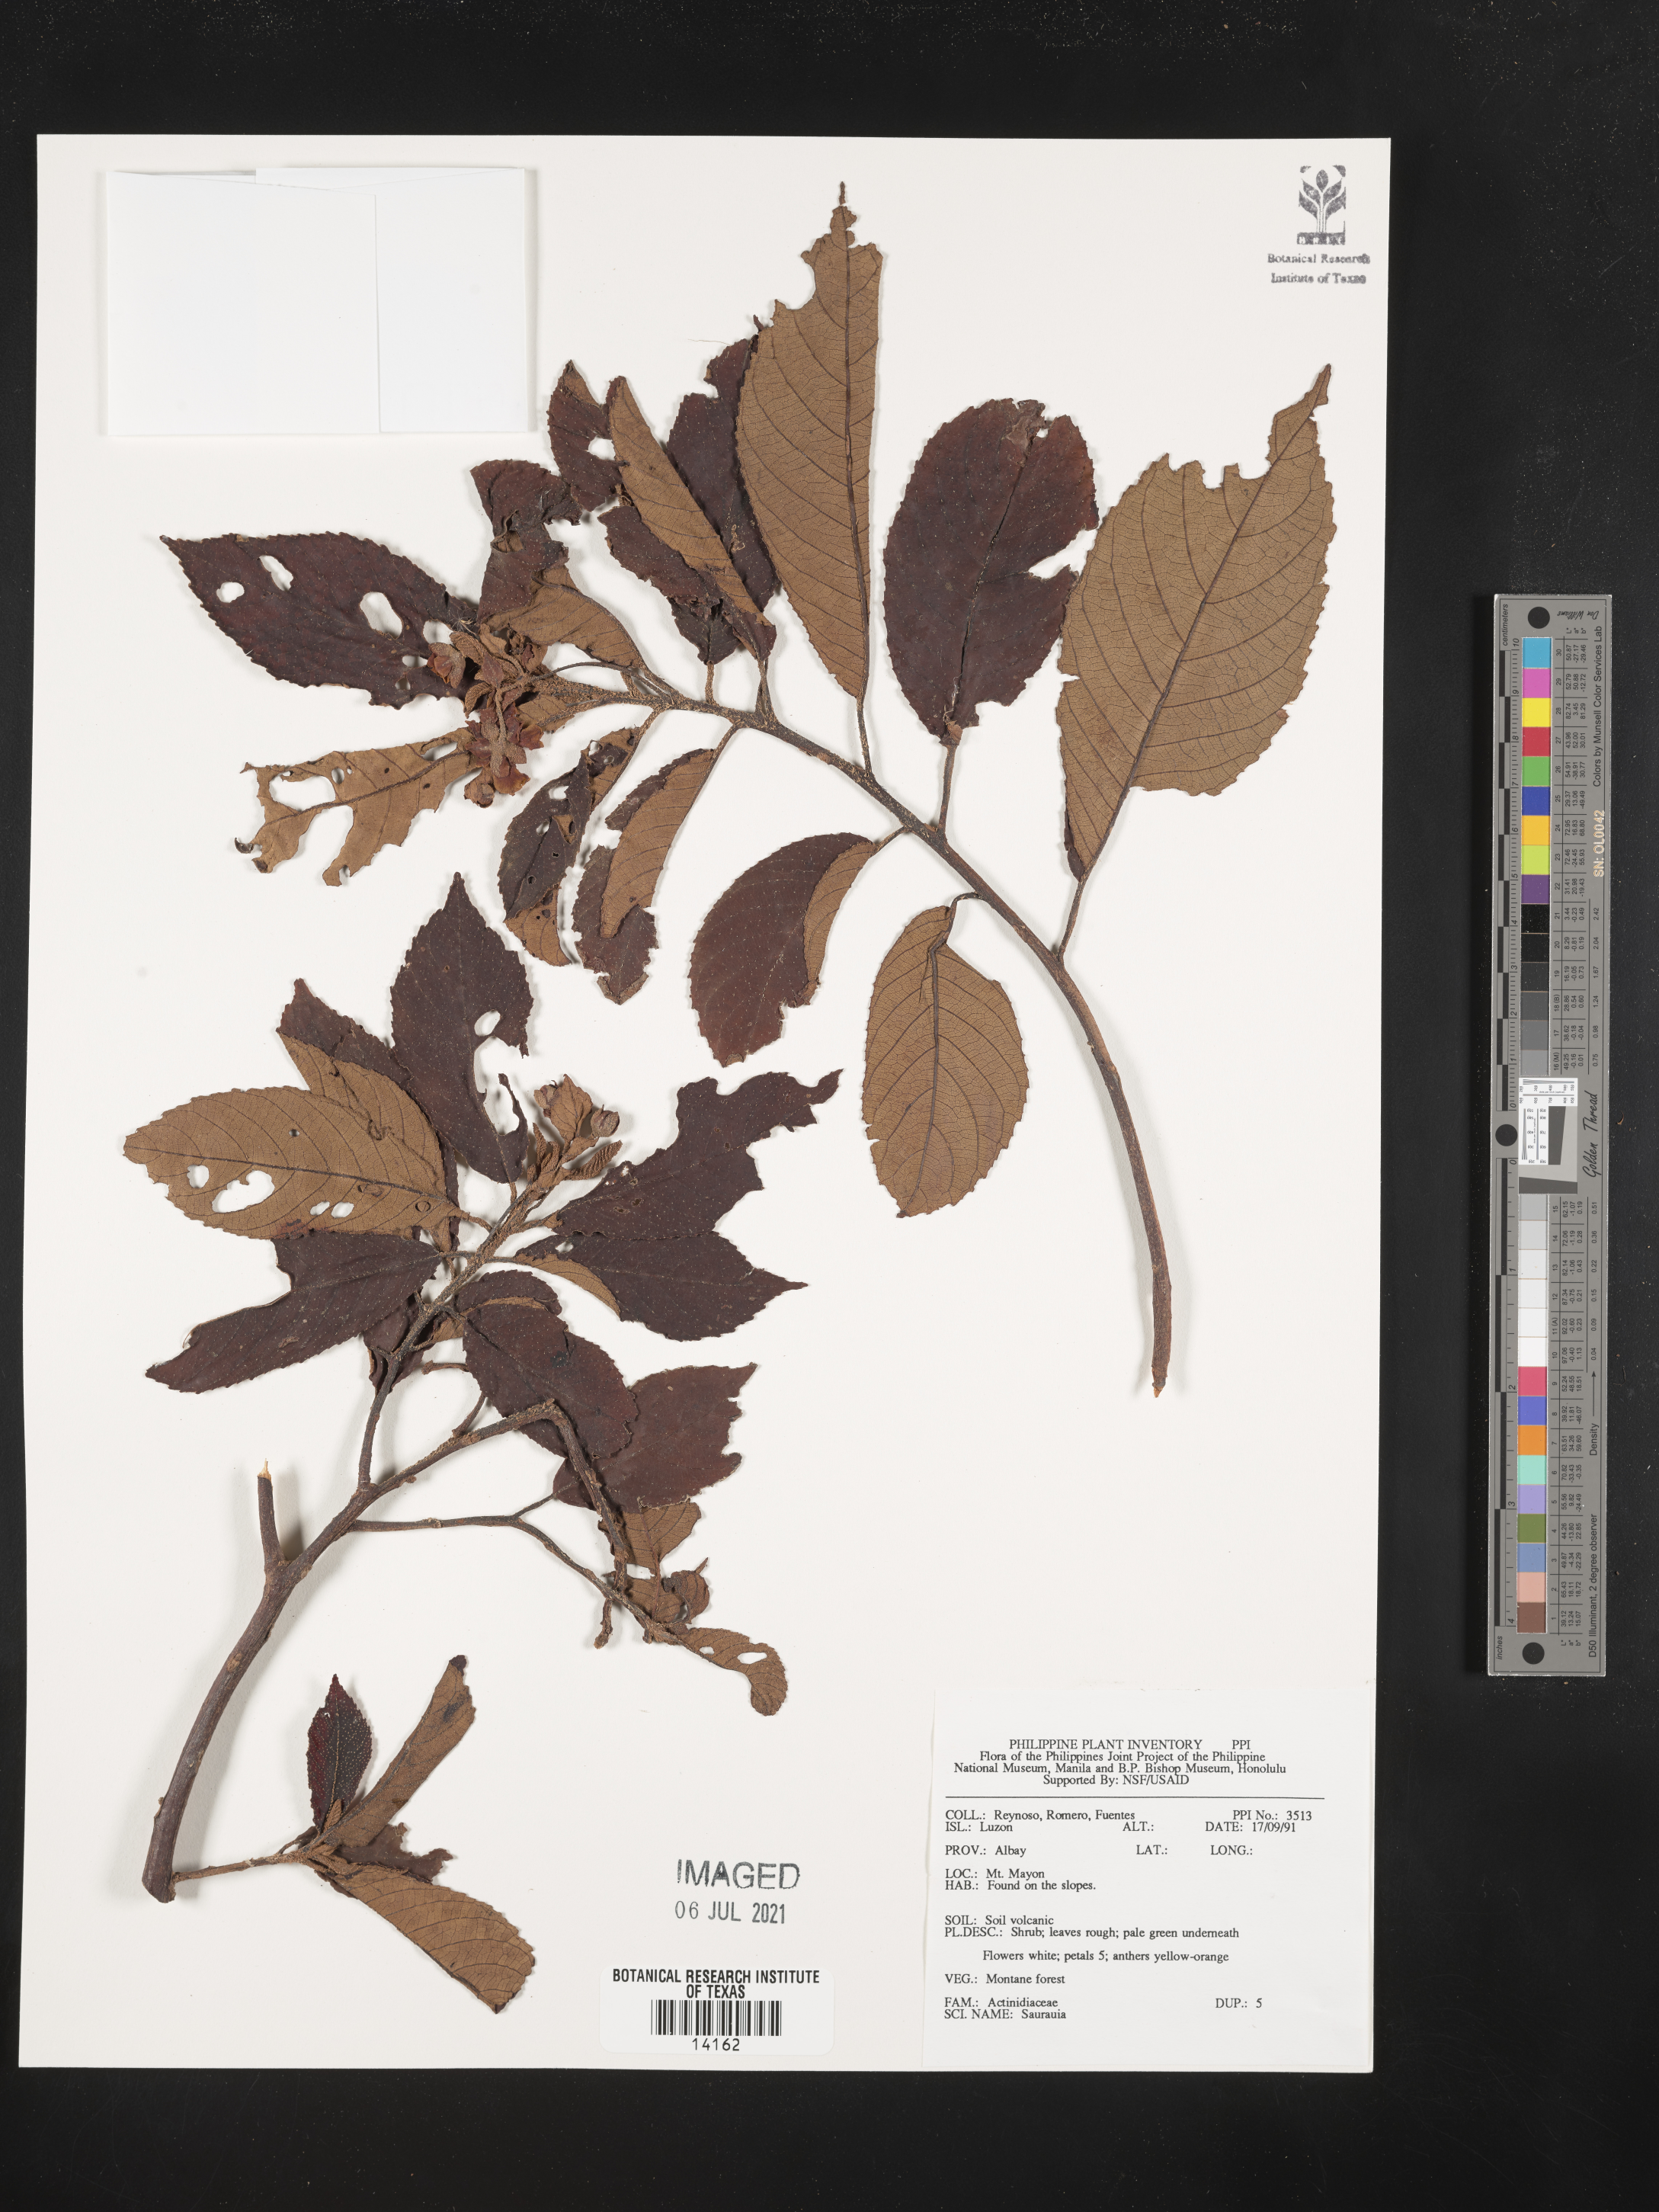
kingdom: Plantae
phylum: Tracheophyta
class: Magnoliopsida
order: Ericales
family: Actinidiaceae
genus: Saurauia
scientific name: Saurauia
